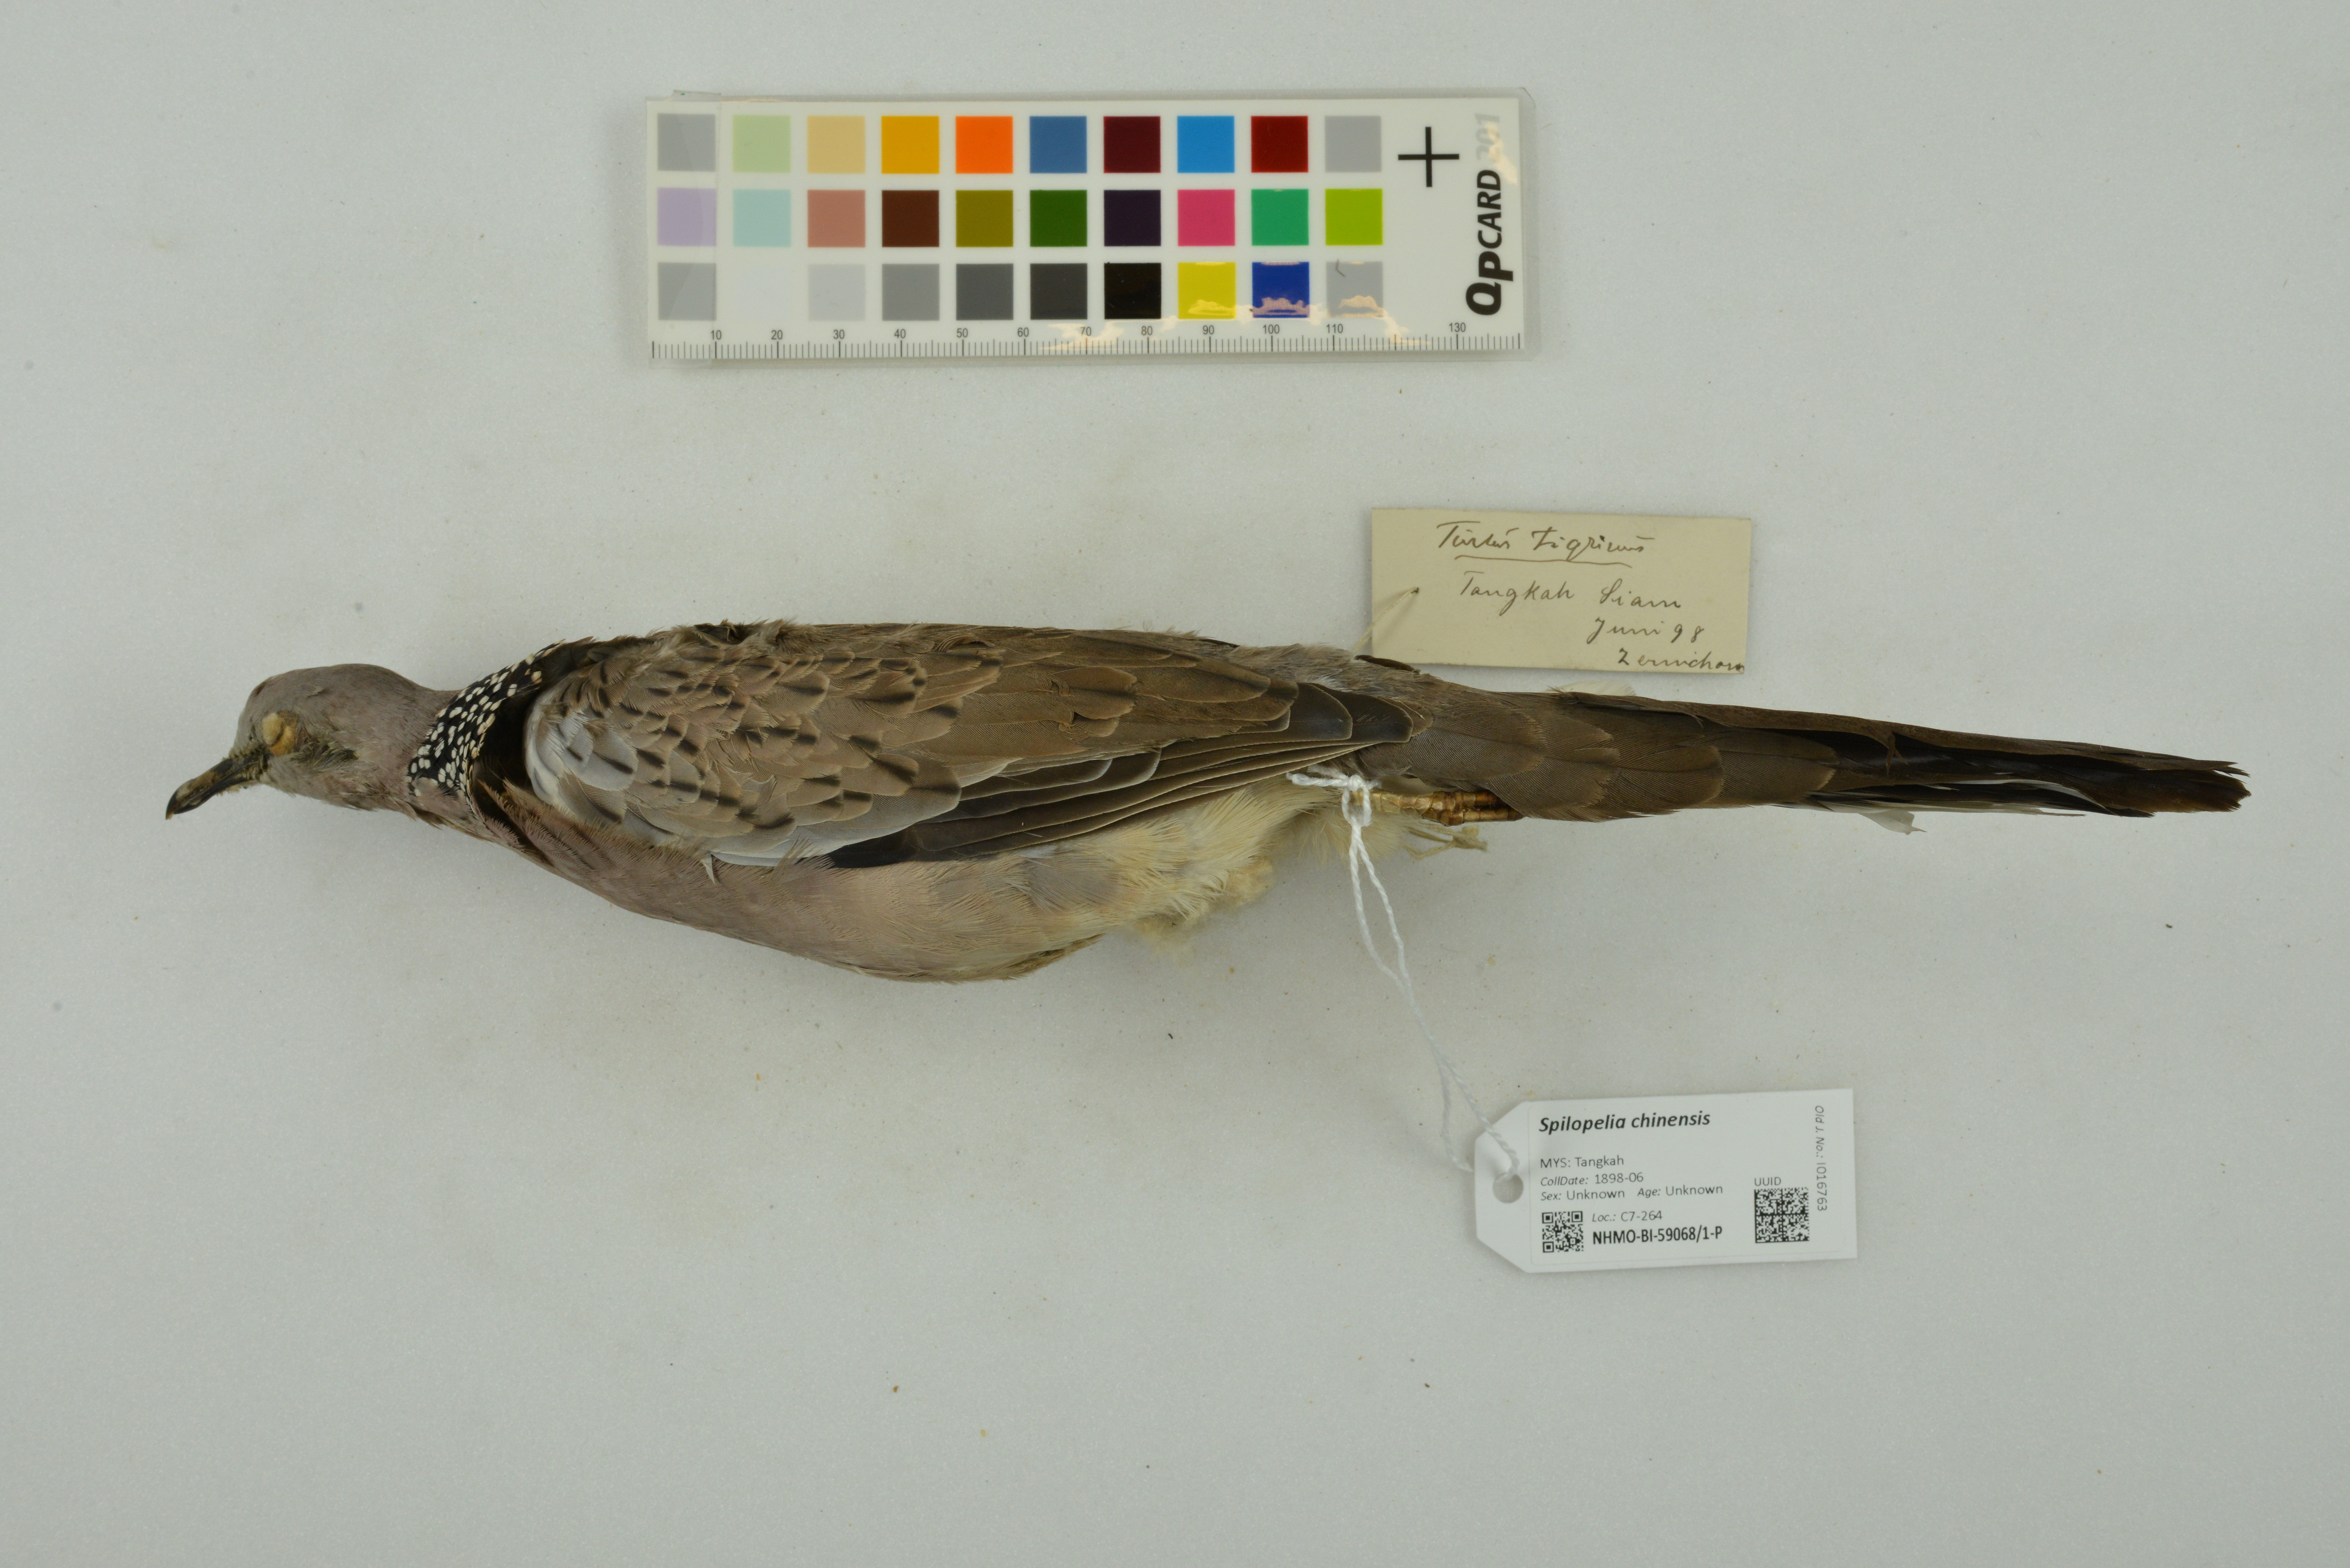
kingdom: Animalia
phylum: Chordata
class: Aves
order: Columbiformes
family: Columbidae
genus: Spilopelia
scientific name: Spilopelia chinensis
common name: Spotted dove
